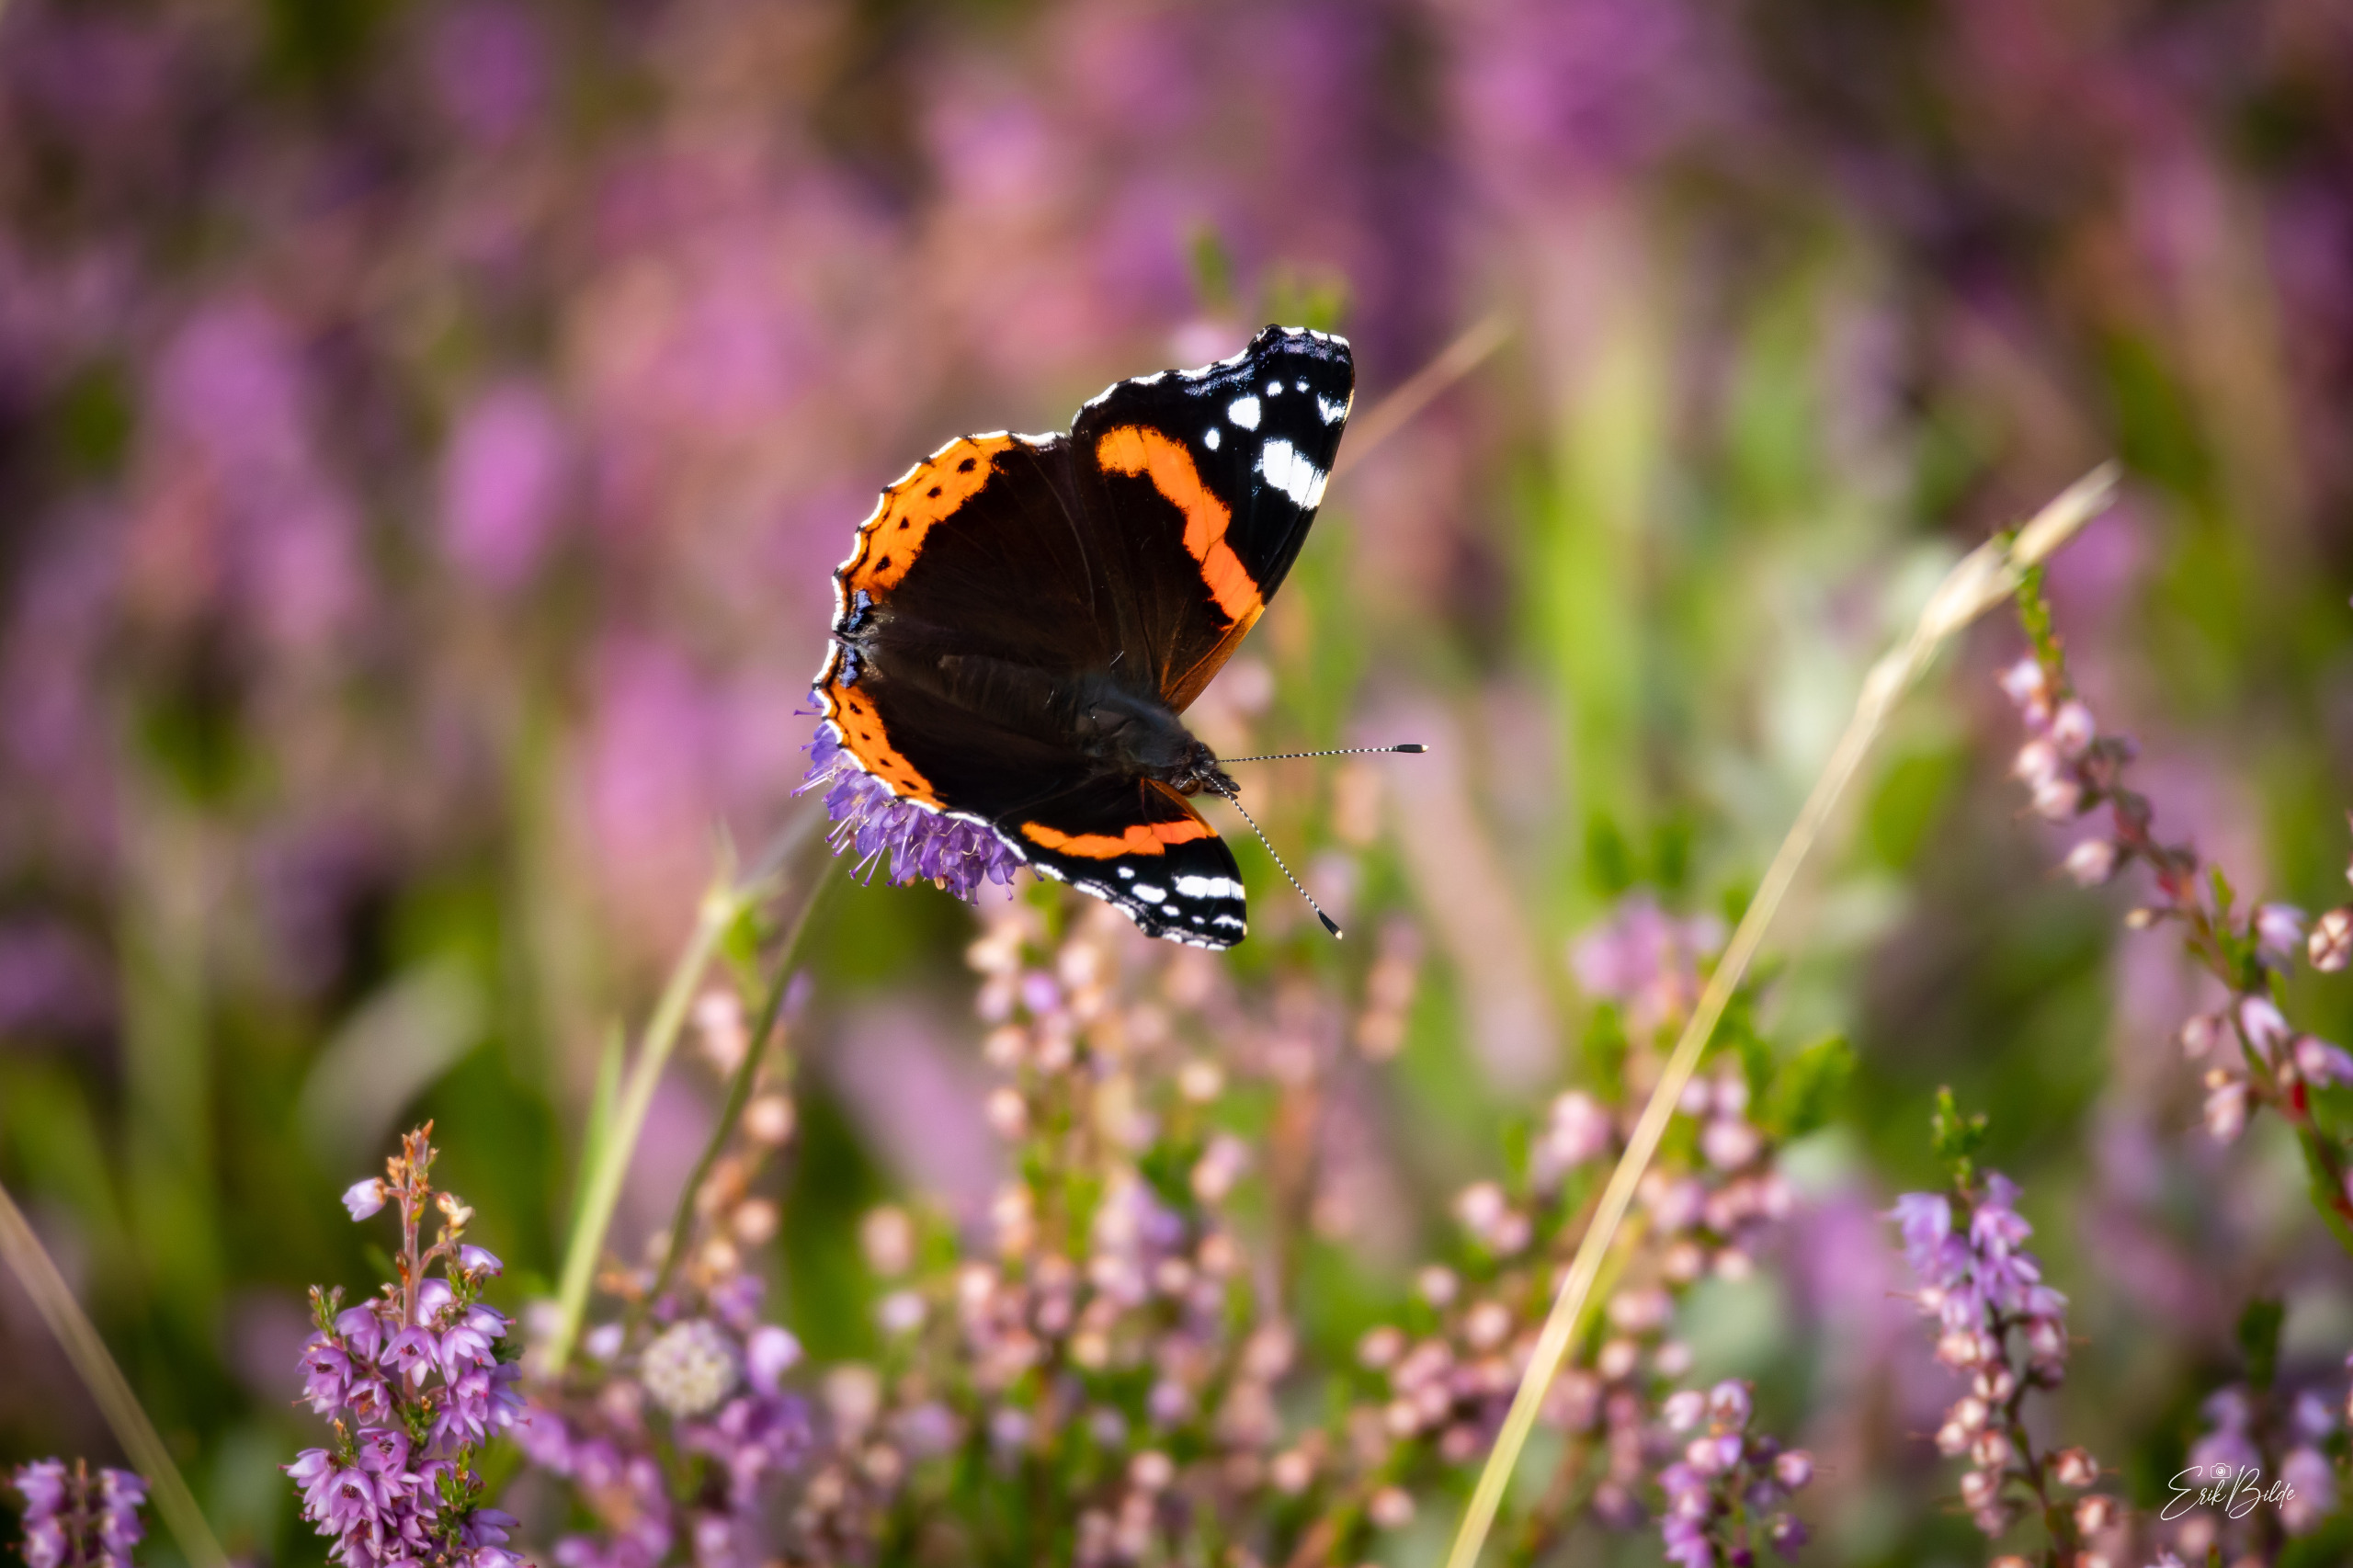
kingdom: Animalia
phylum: Arthropoda
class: Insecta
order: Lepidoptera
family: Nymphalidae
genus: Vanessa
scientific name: Vanessa atalanta
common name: Admiral
